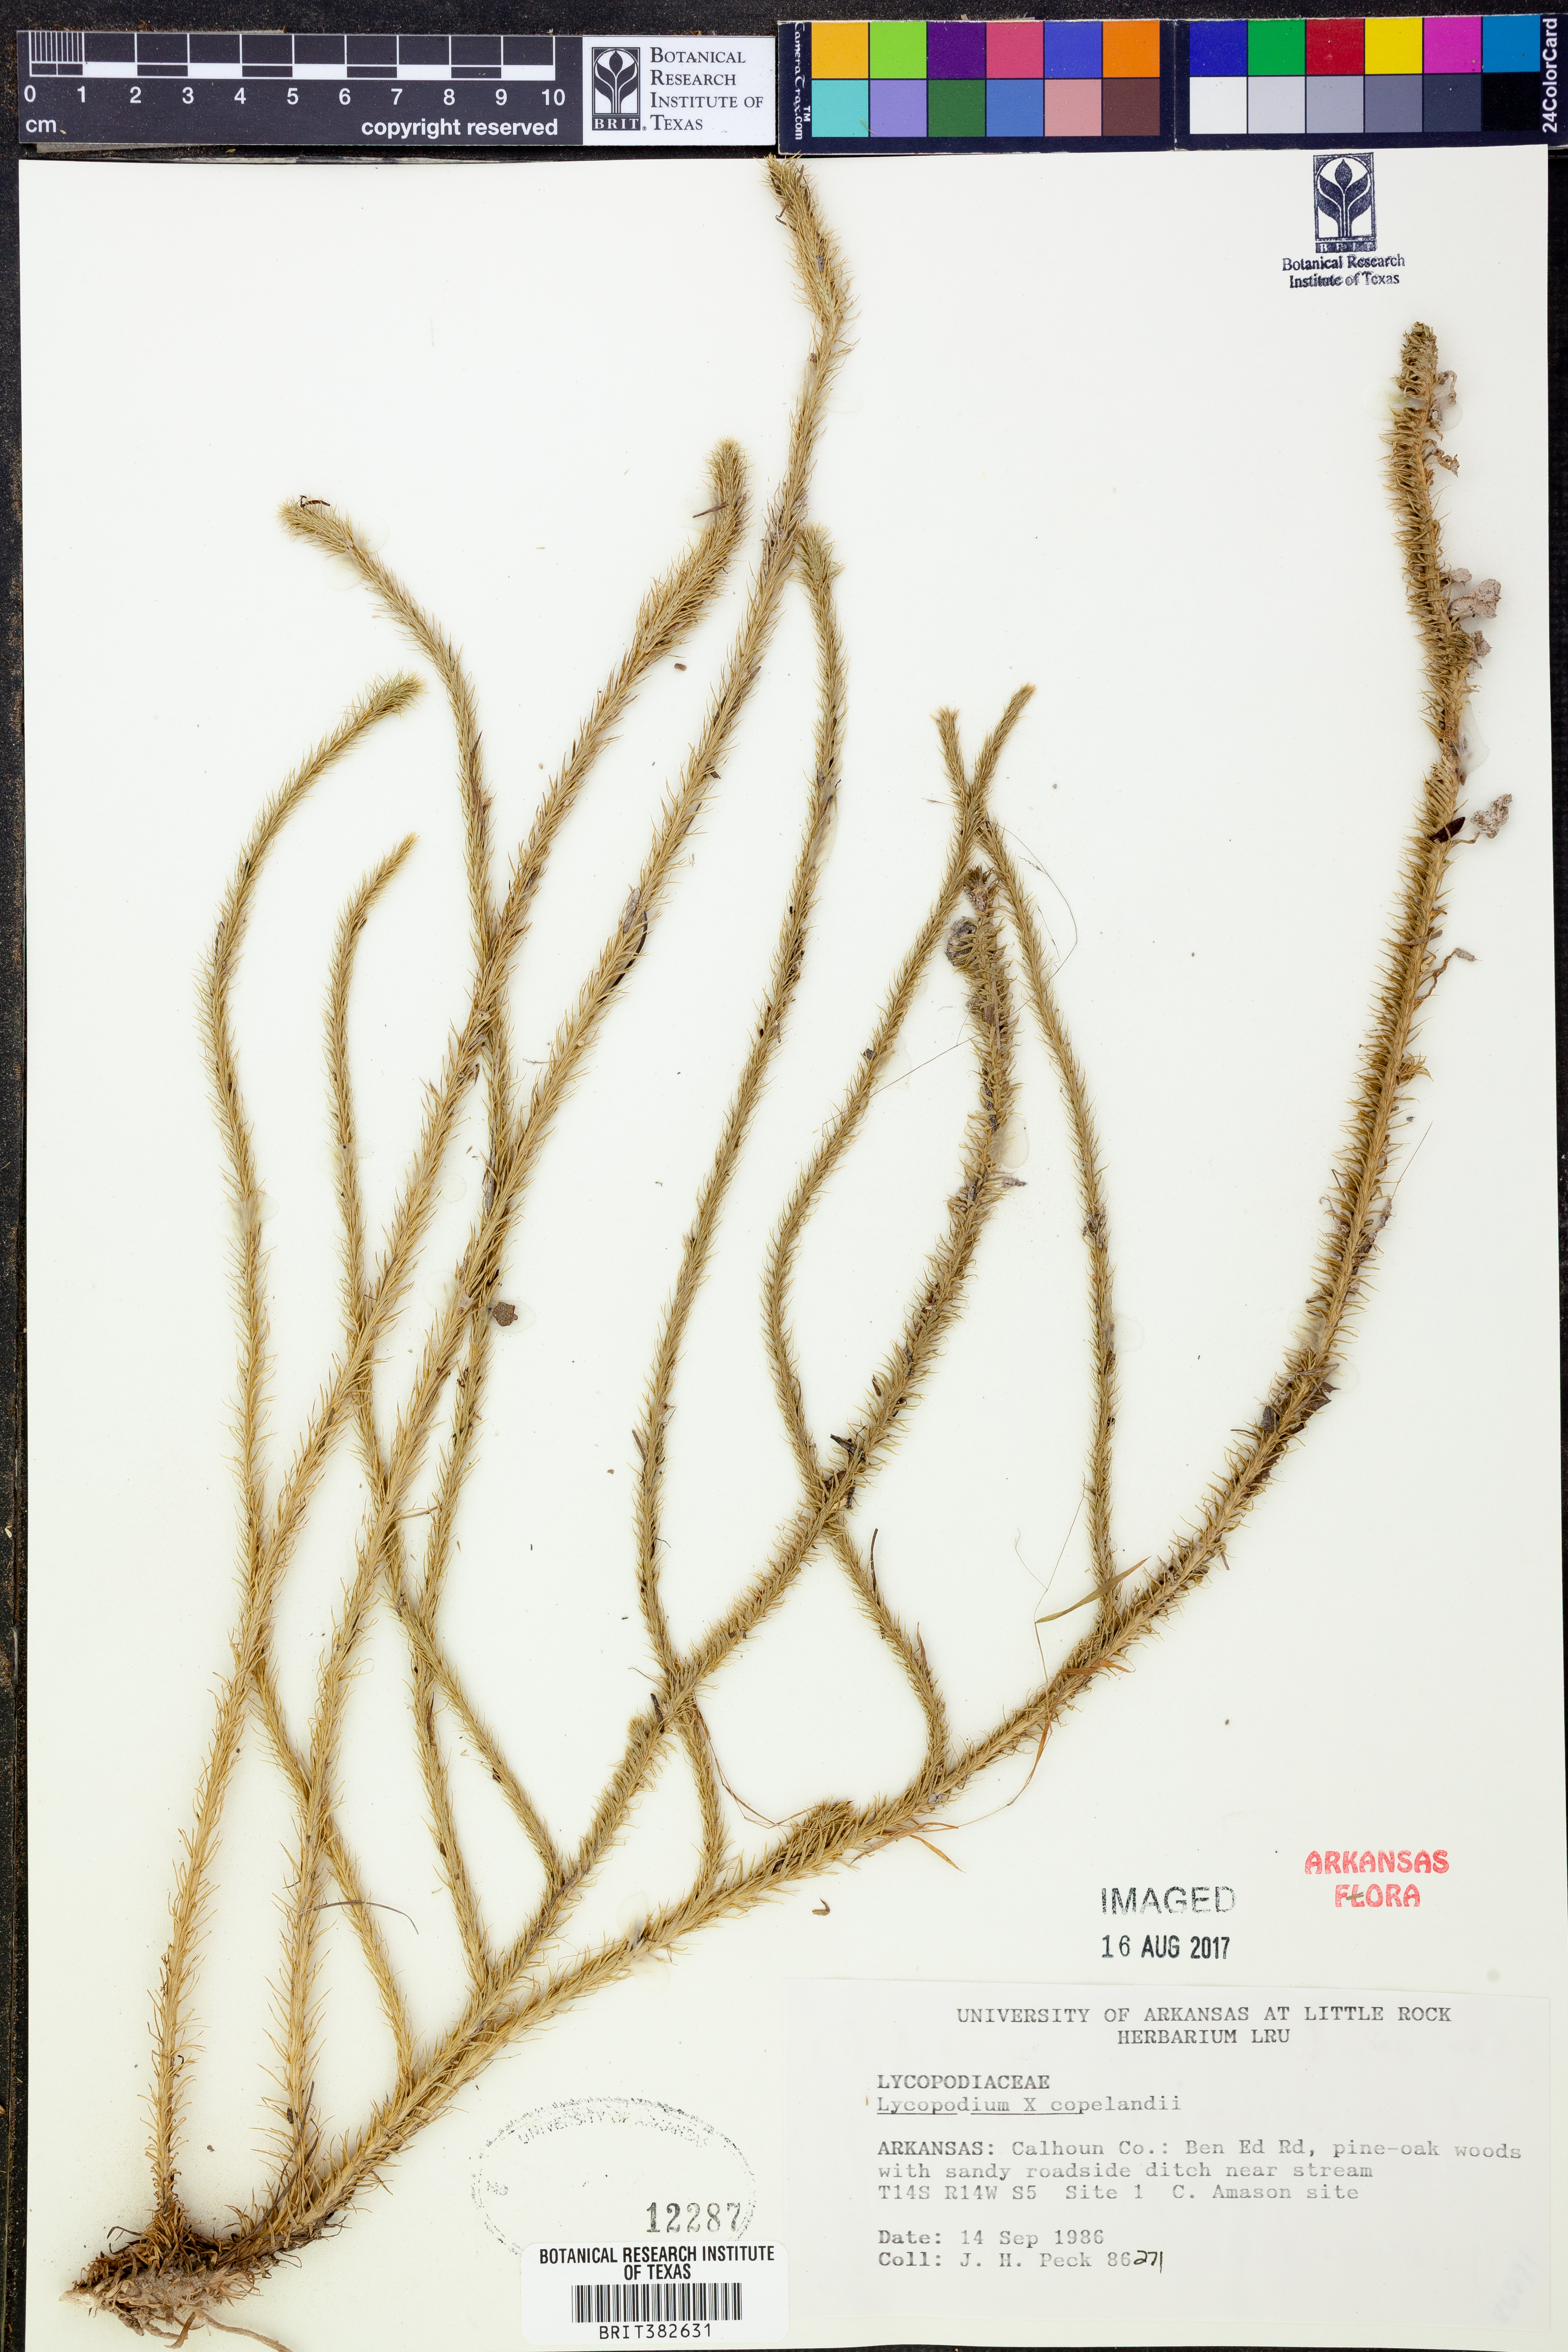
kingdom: Plantae
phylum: Tracheophyta
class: Lycopodiopsida
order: Lycopodiales
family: Lycopodiaceae
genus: Lycopodiella
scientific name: Lycopodiella copelandii
